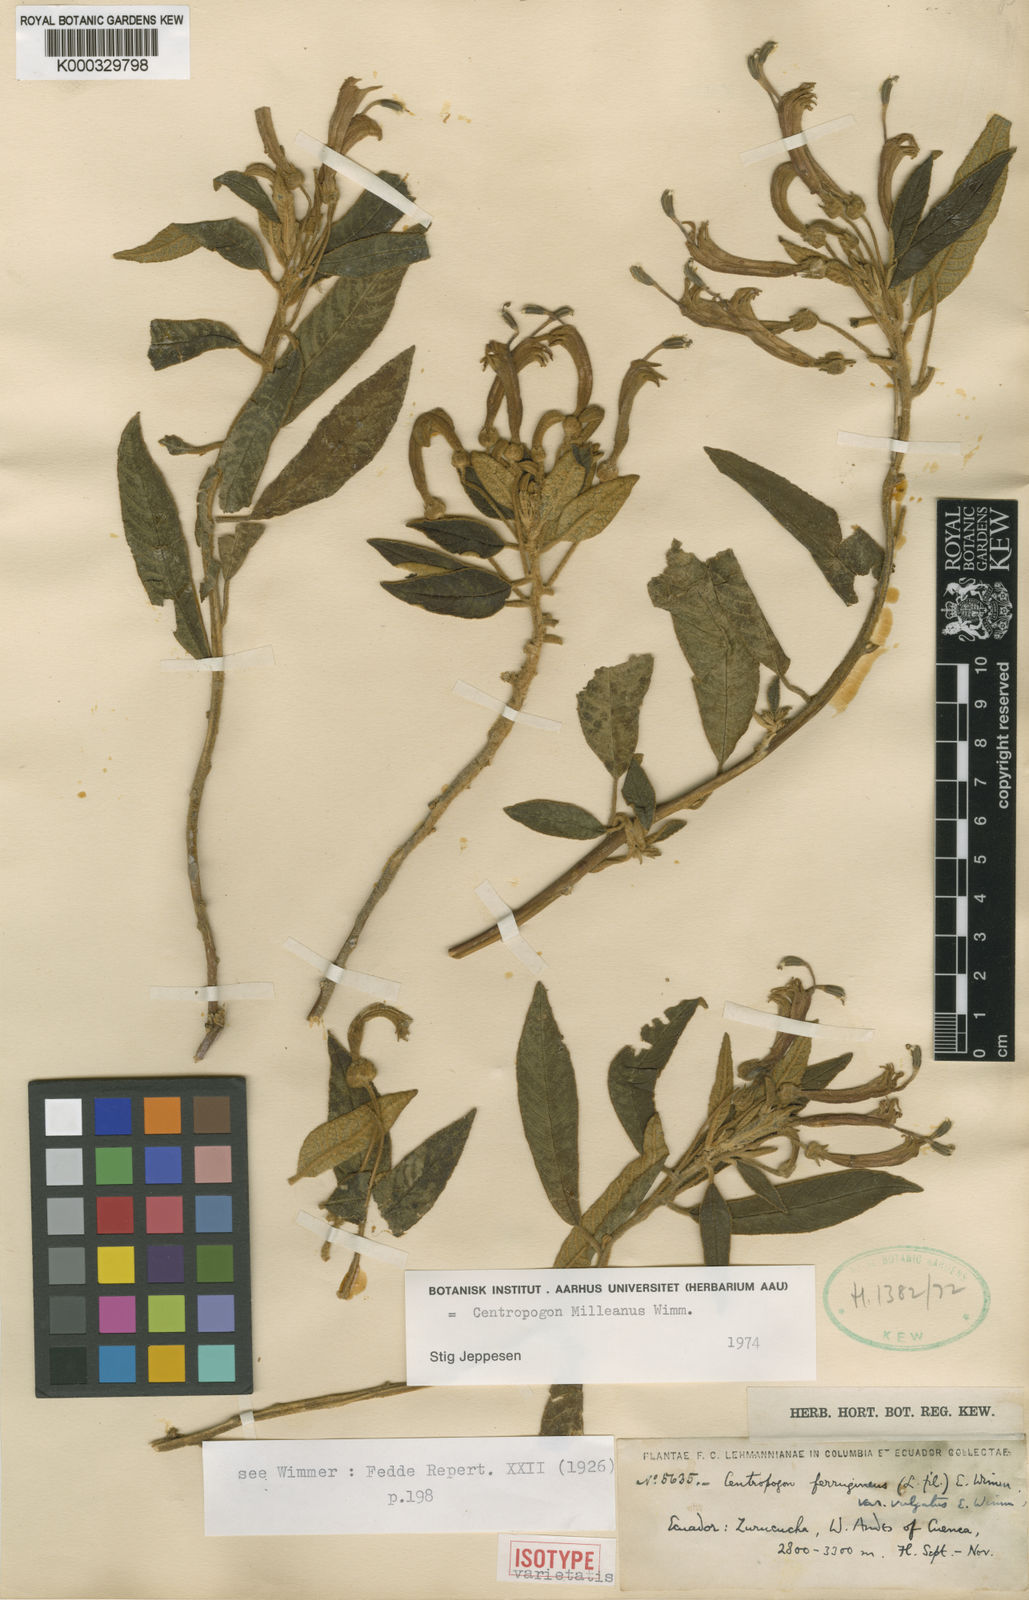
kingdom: Plantae
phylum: Tracheophyta
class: Magnoliopsida
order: Asterales
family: Campanulaceae
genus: Centropogon
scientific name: Centropogon salviiformis
